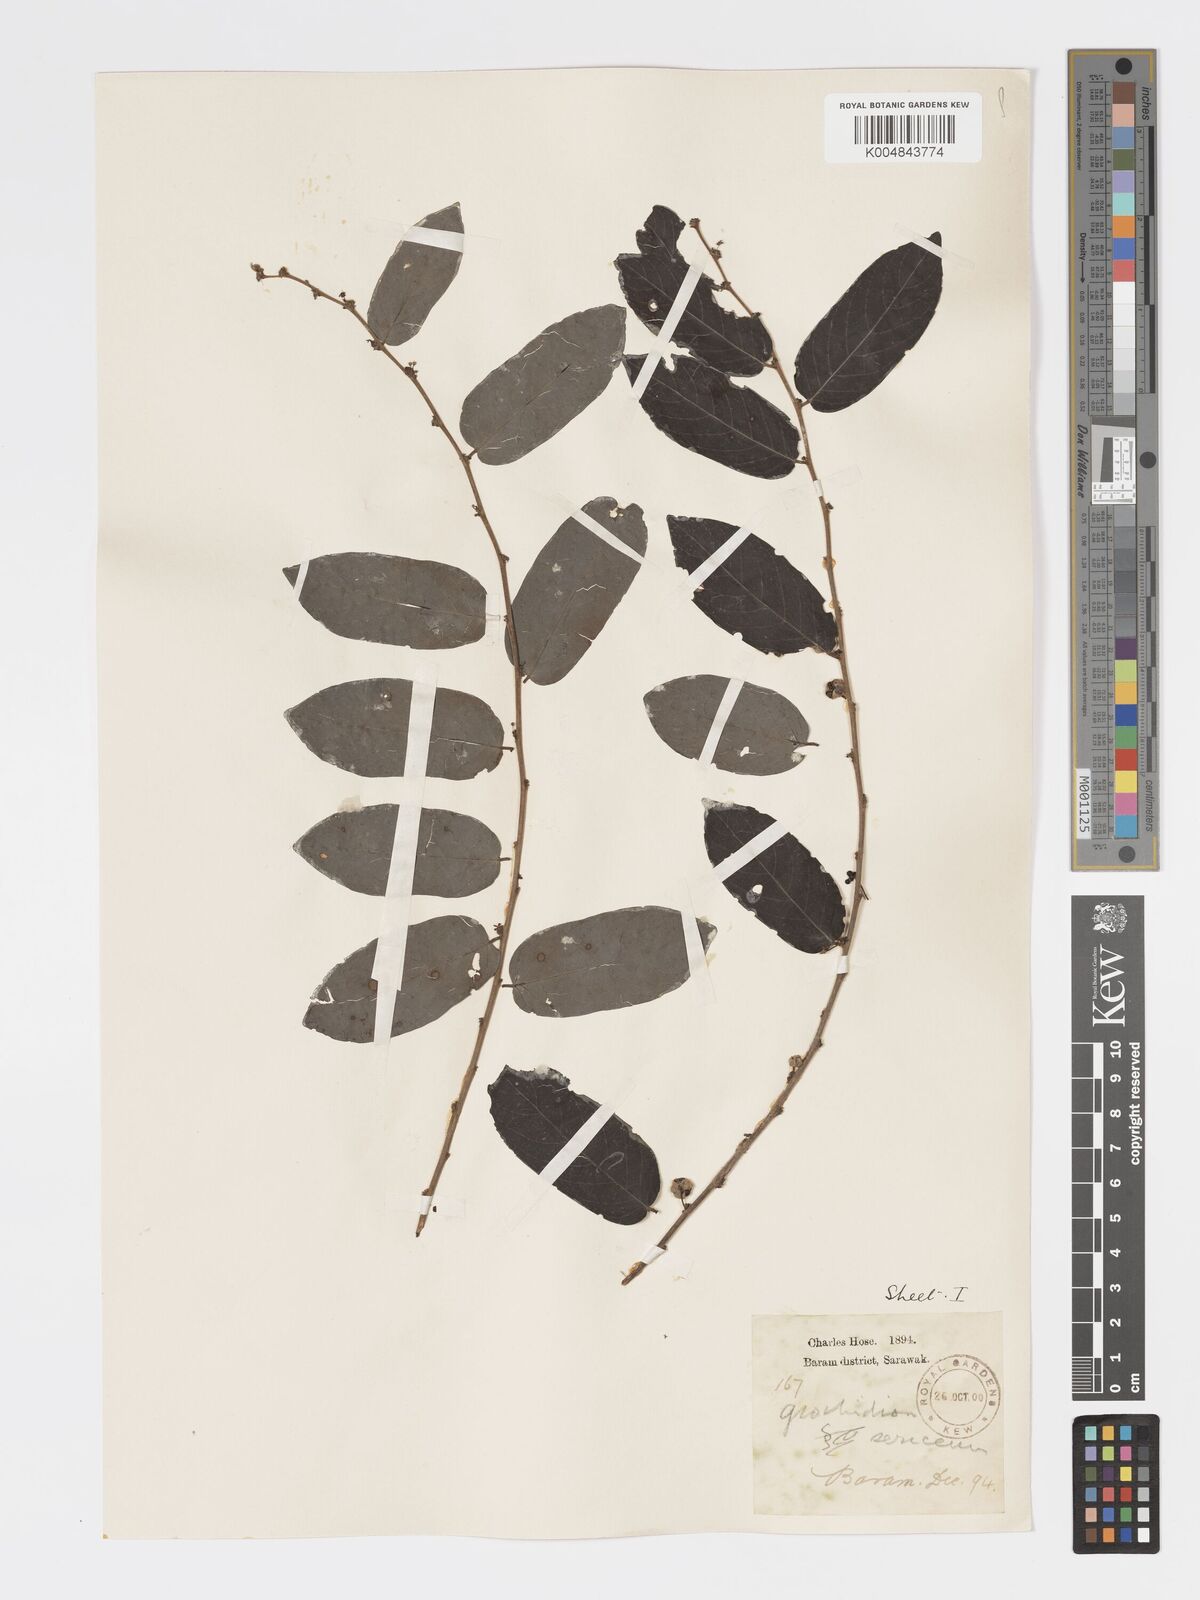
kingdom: Plantae
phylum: Tracheophyta
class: Magnoliopsida
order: Malpighiales
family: Phyllanthaceae
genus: Glochidion
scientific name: Glochidion sericeum
